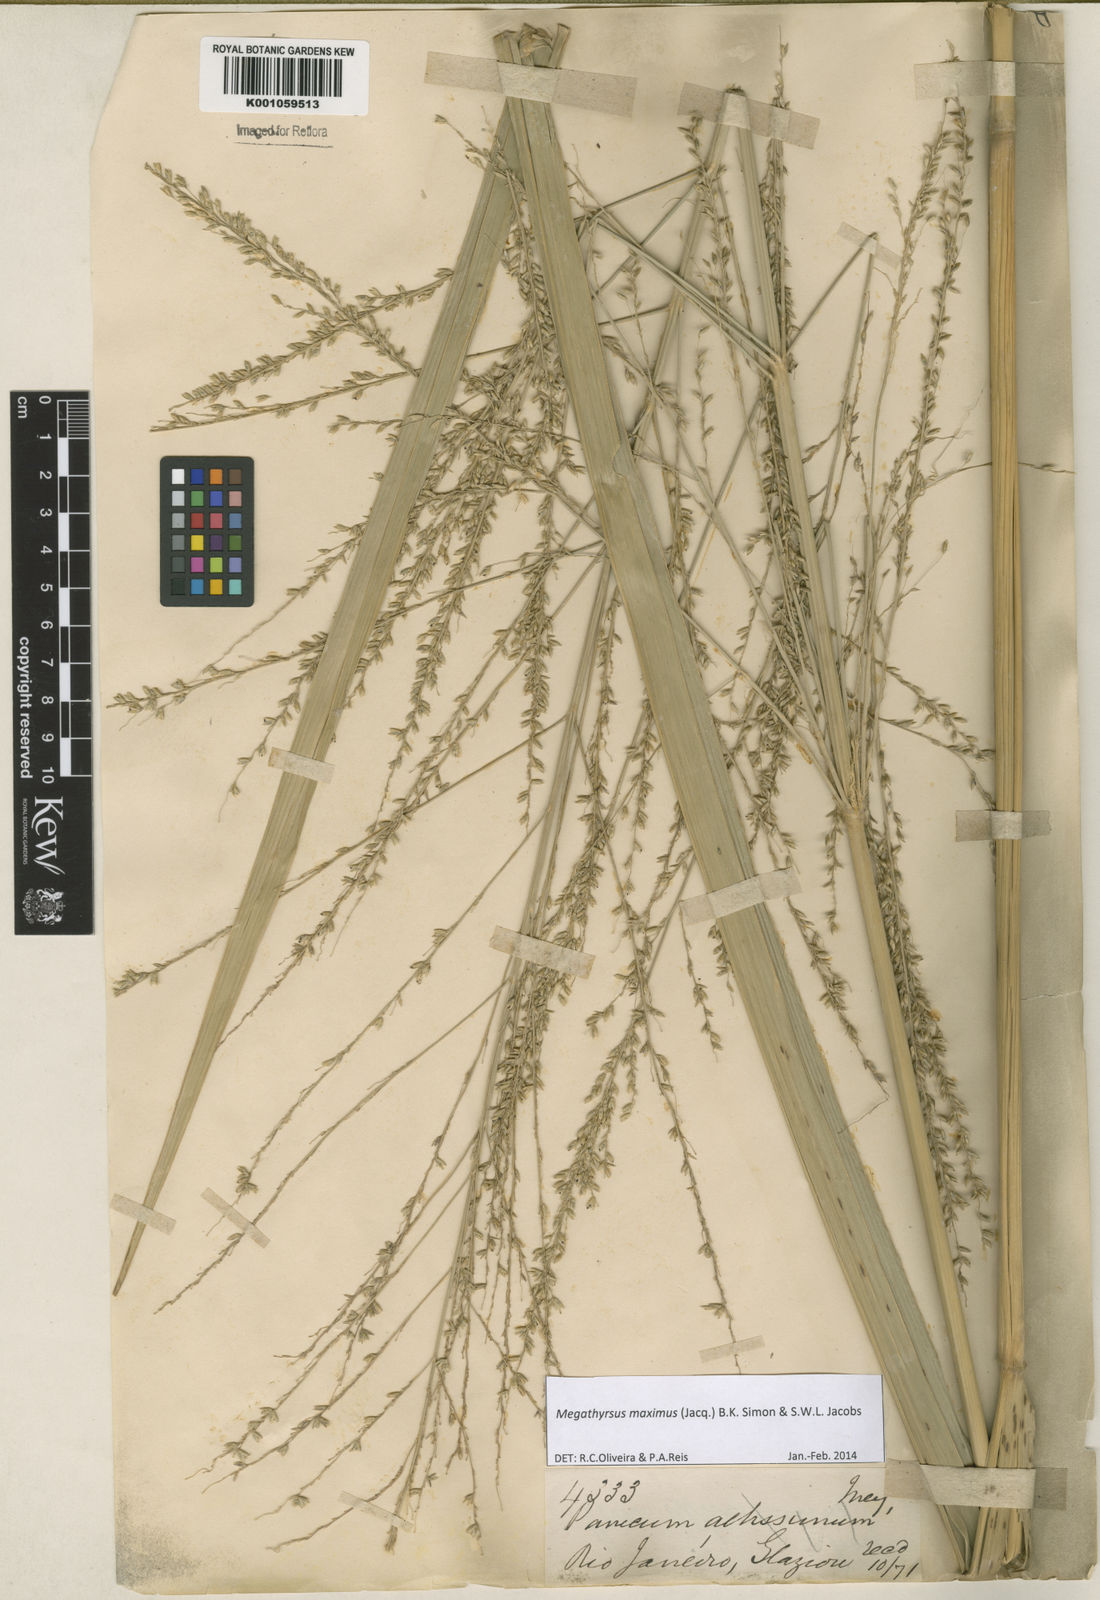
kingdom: Plantae
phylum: Tracheophyta
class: Liliopsida
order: Poales
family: Poaceae
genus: Megathyrsus
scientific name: Megathyrsus maximus
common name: Guineagrass
